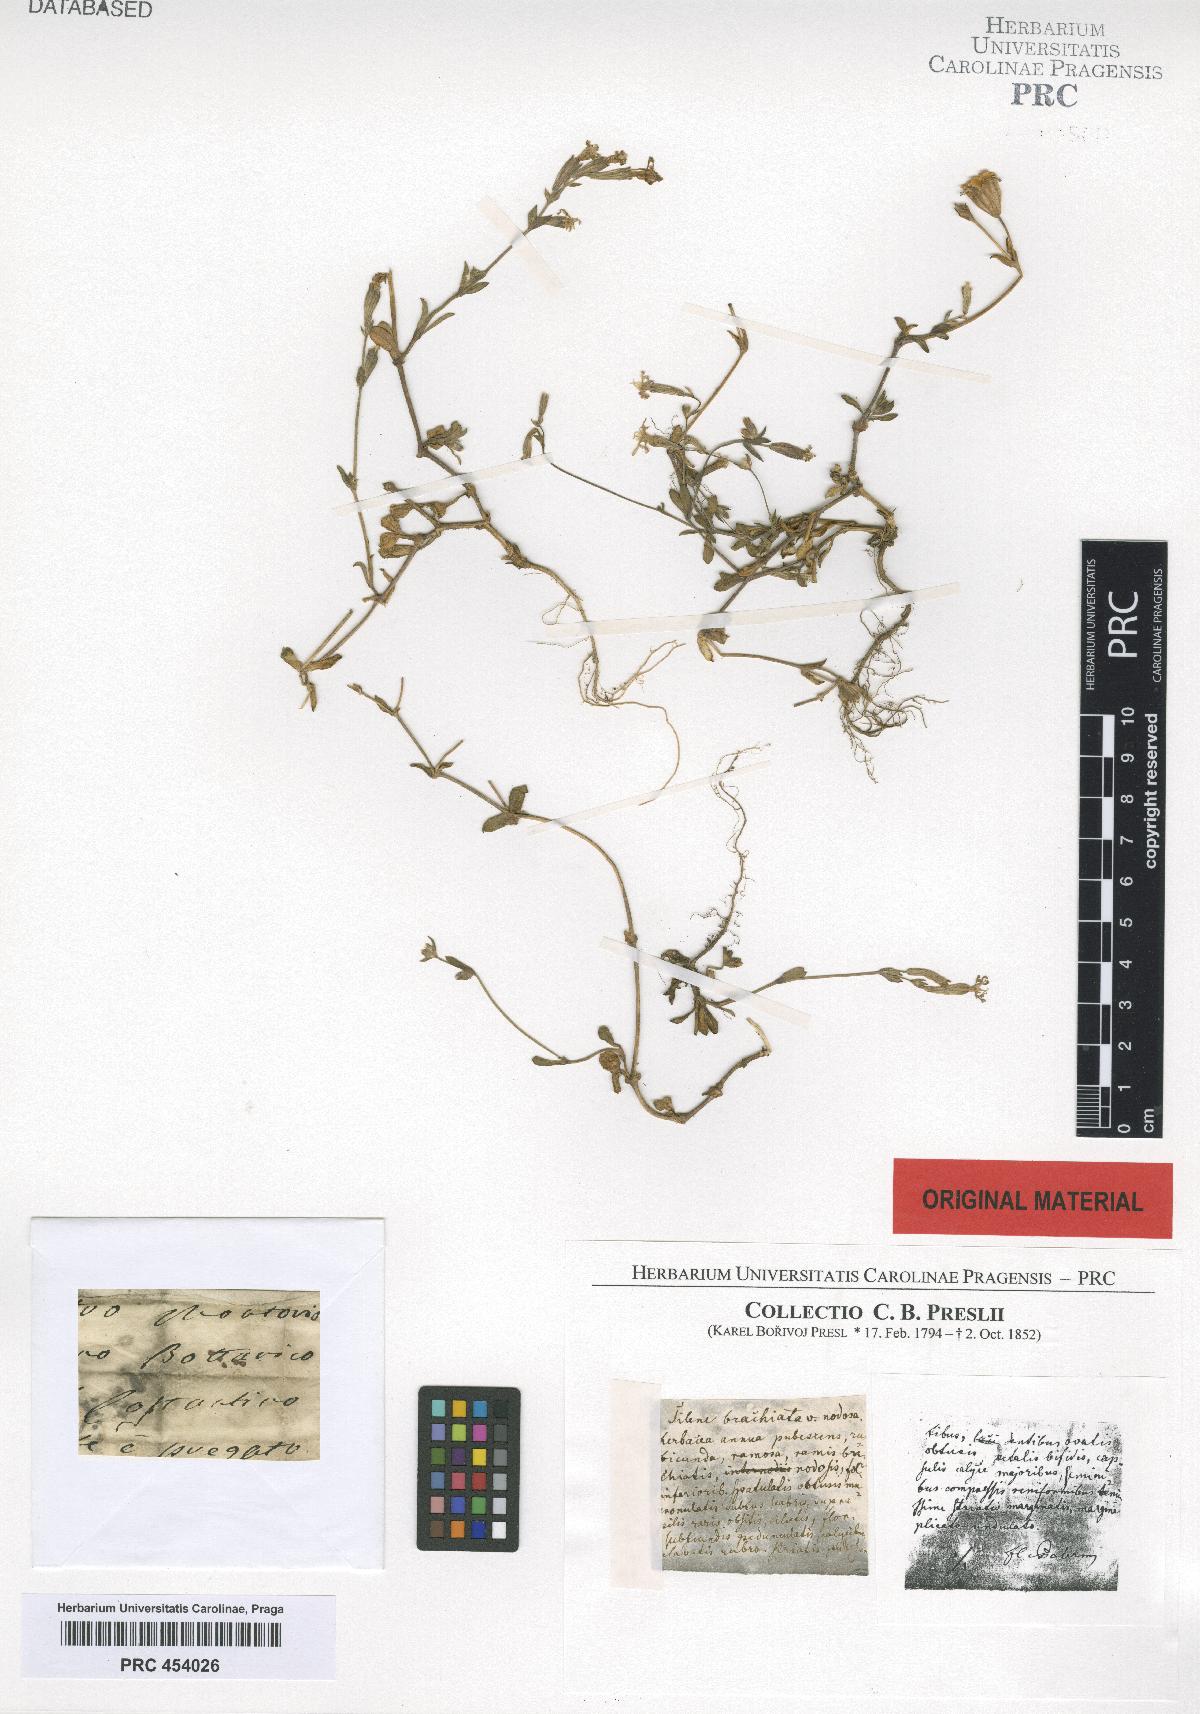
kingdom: Plantae
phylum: Tracheophyta
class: Magnoliopsida
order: Caryophyllales
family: Caryophyllaceae
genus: Silene
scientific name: Silene vulgaris
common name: Bladder campion
